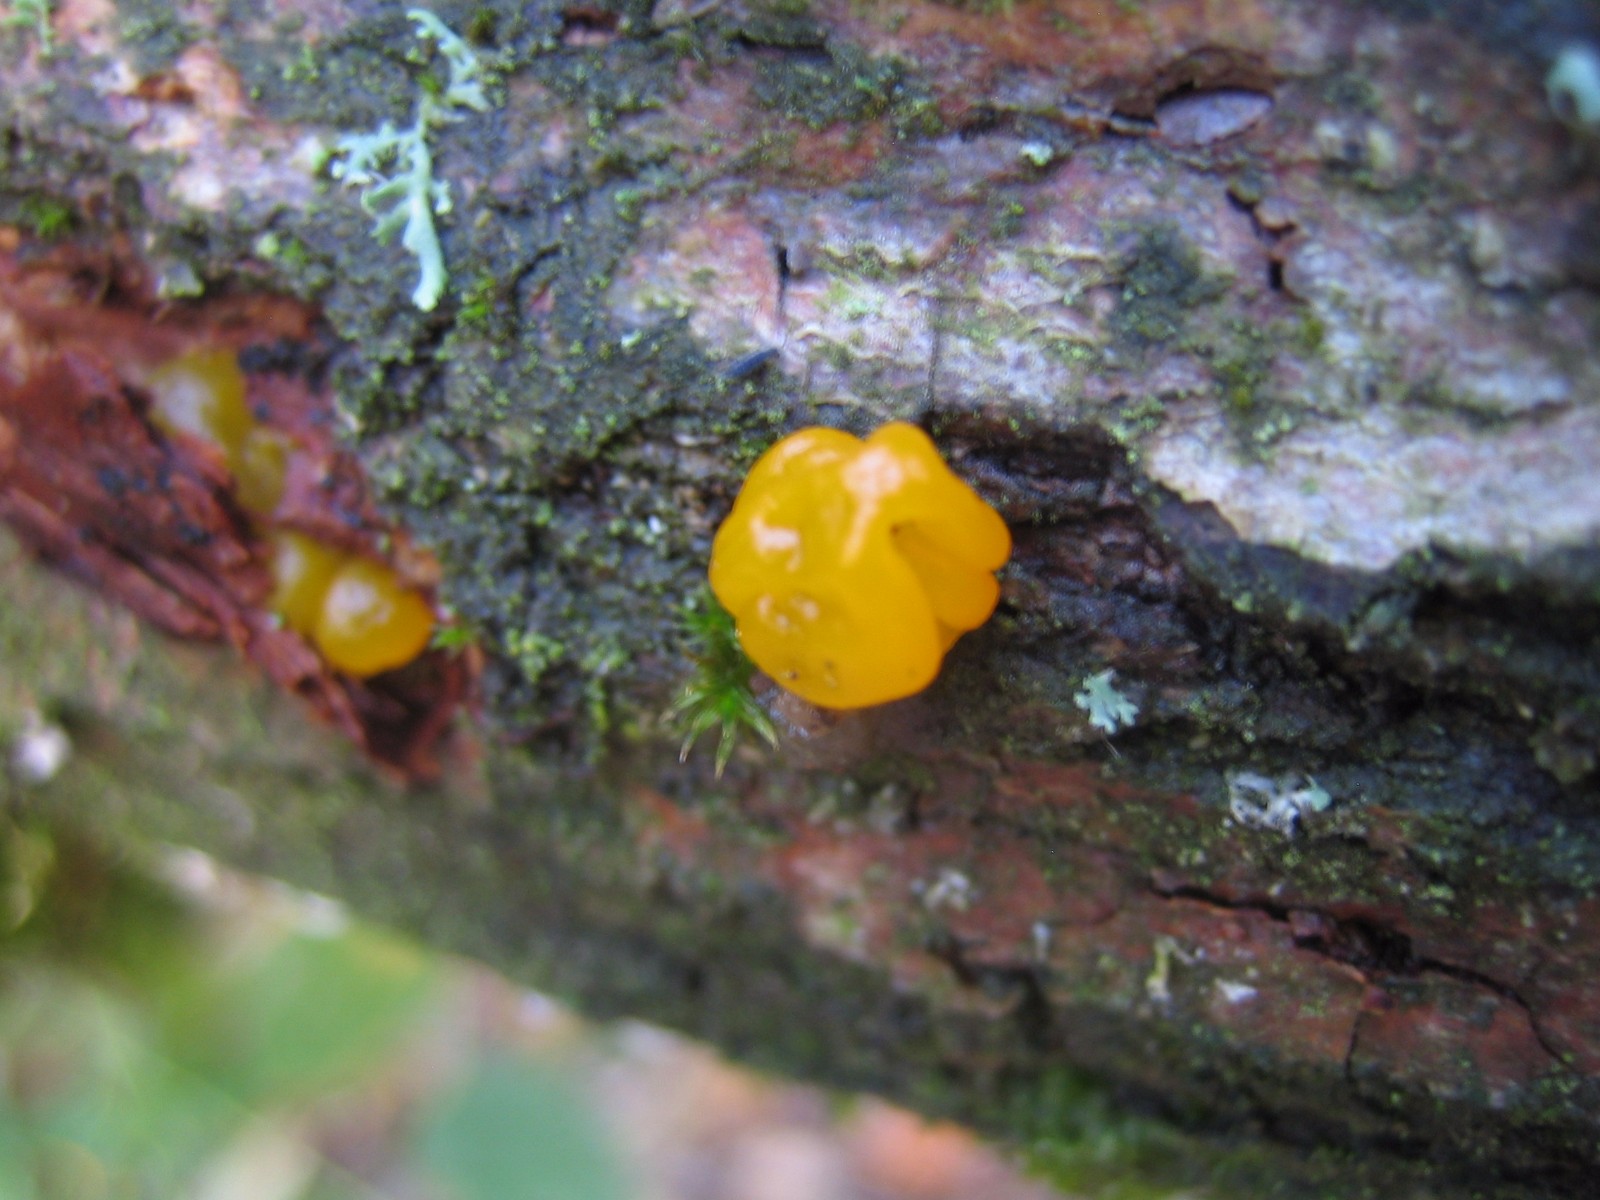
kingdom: Fungi
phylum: Basidiomycota
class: Tremellomycetes
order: Tremellales
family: Tremellaceae
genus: Tremella
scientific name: Tremella mesenterica
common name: gul bævresvamp
